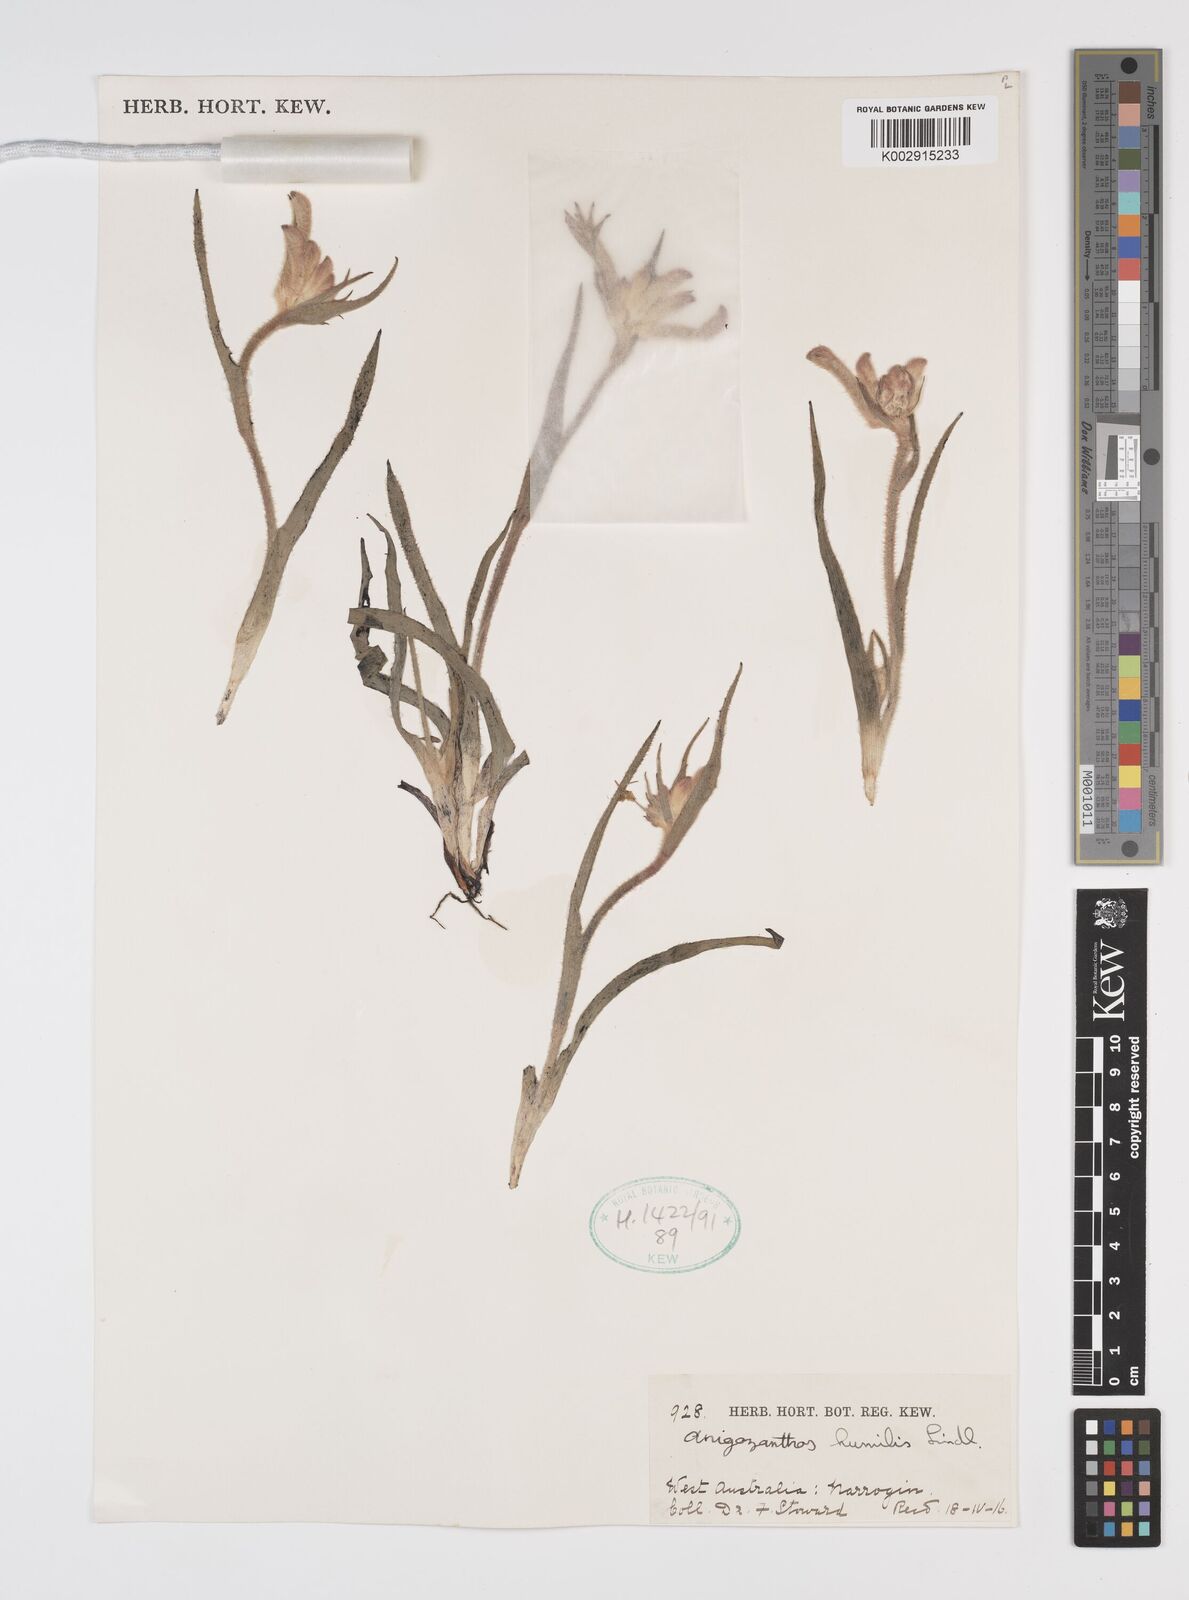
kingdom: Plantae
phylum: Tracheophyta
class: Liliopsida
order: Commelinales
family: Haemodoraceae
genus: Anigozanthos
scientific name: Anigozanthos humilis
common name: Cat's-paw
